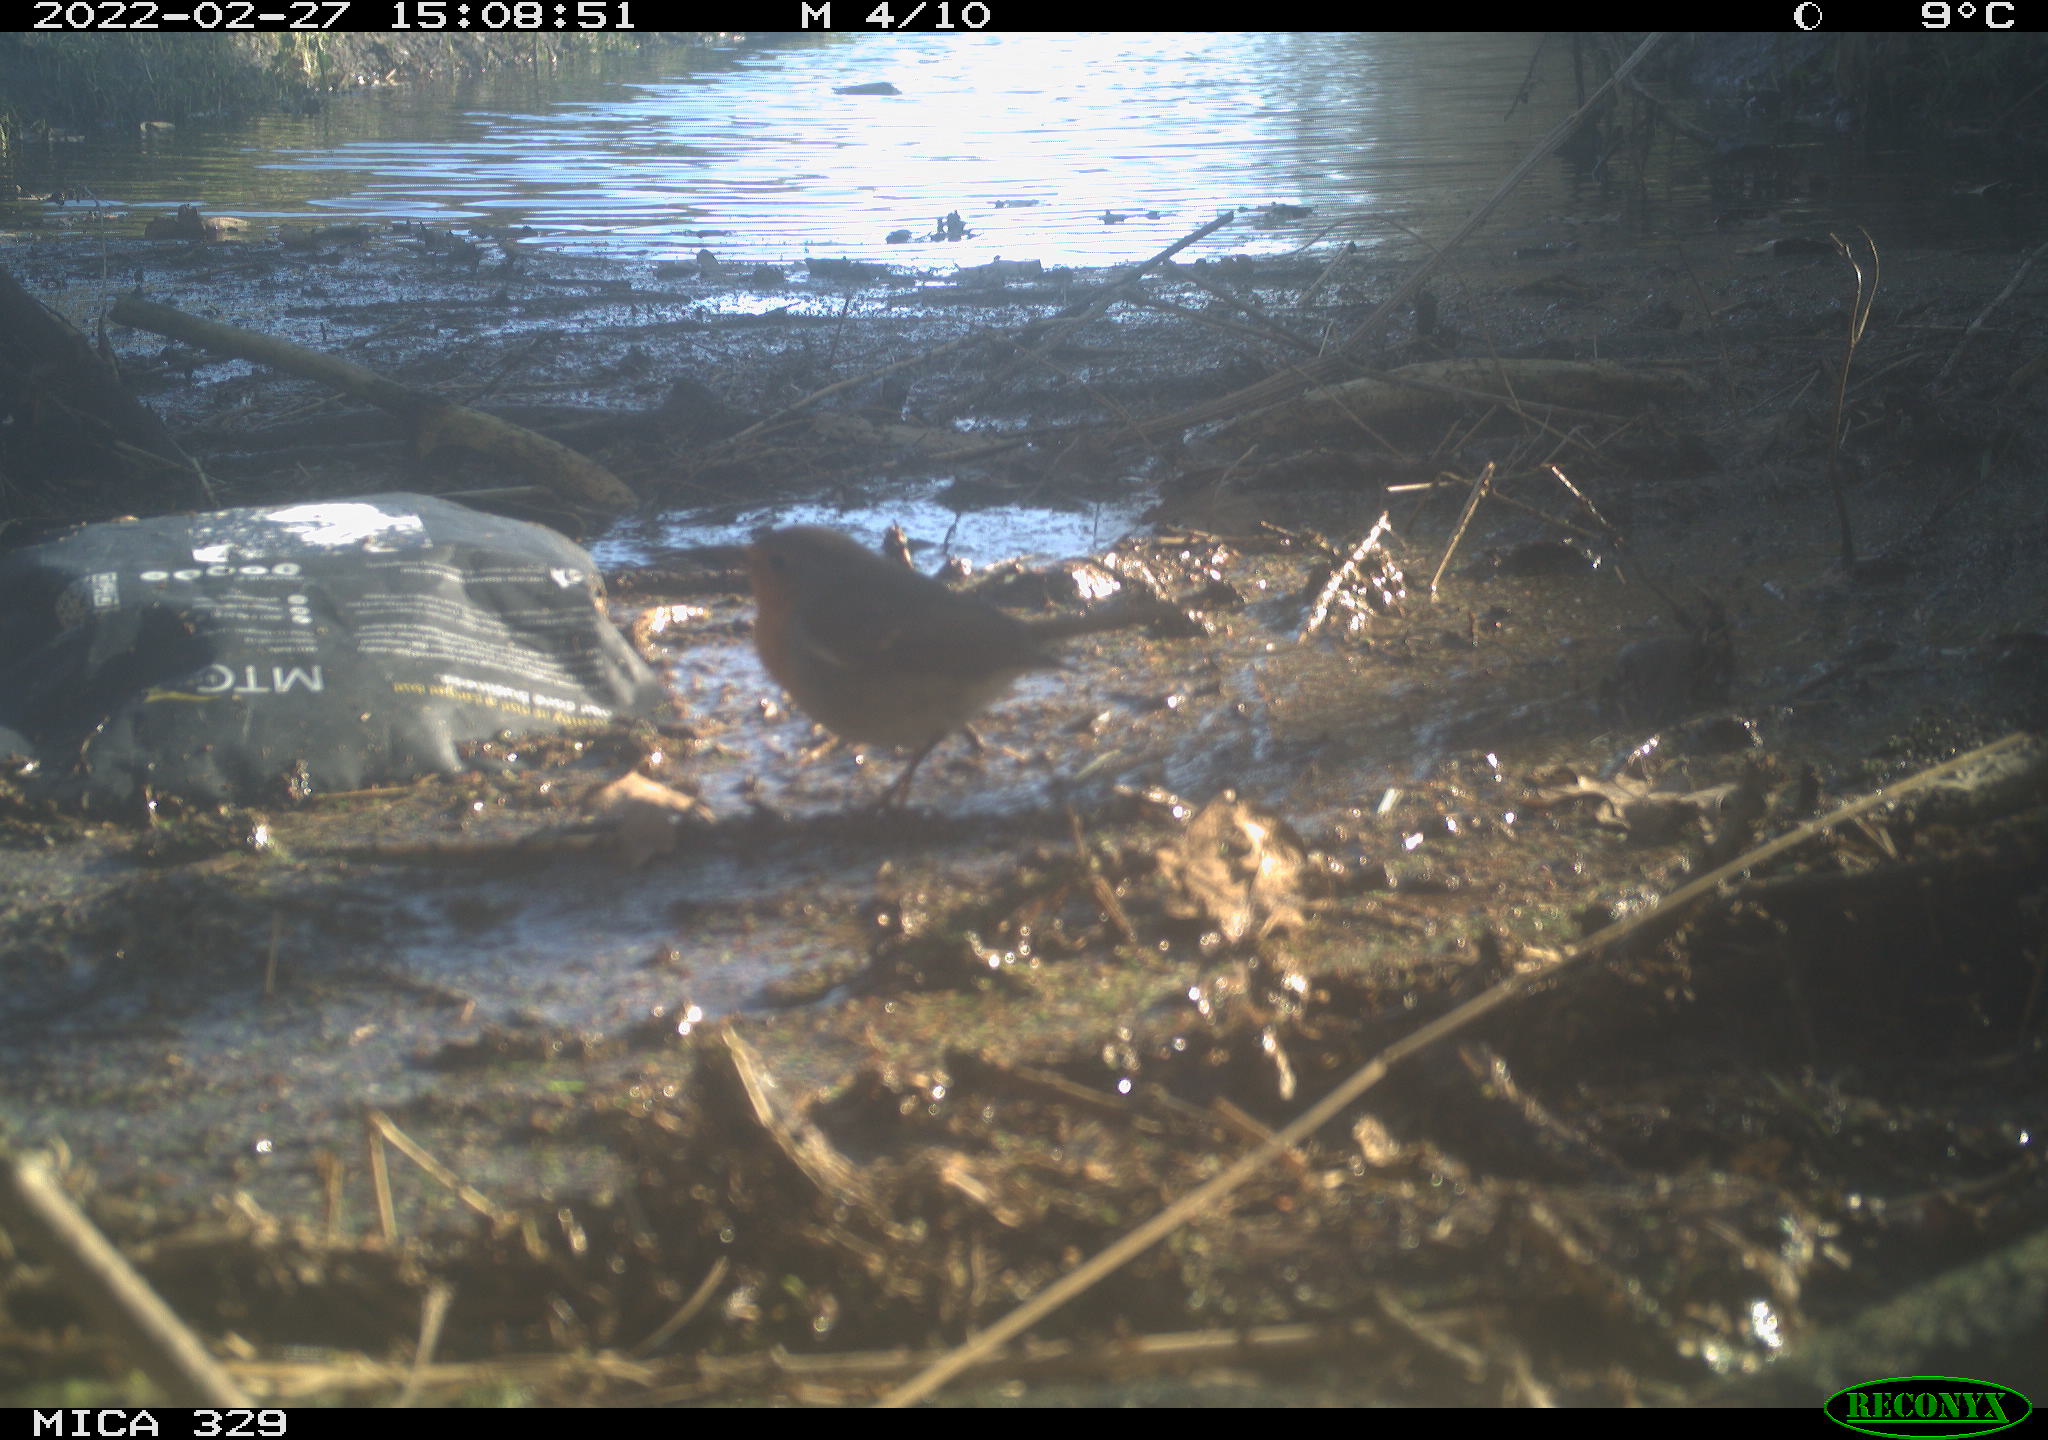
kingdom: Animalia
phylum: Chordata
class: Aves
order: Passeriformes
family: Muscicapidae
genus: Erithacus
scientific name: Erithacus rubecula
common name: European robin
